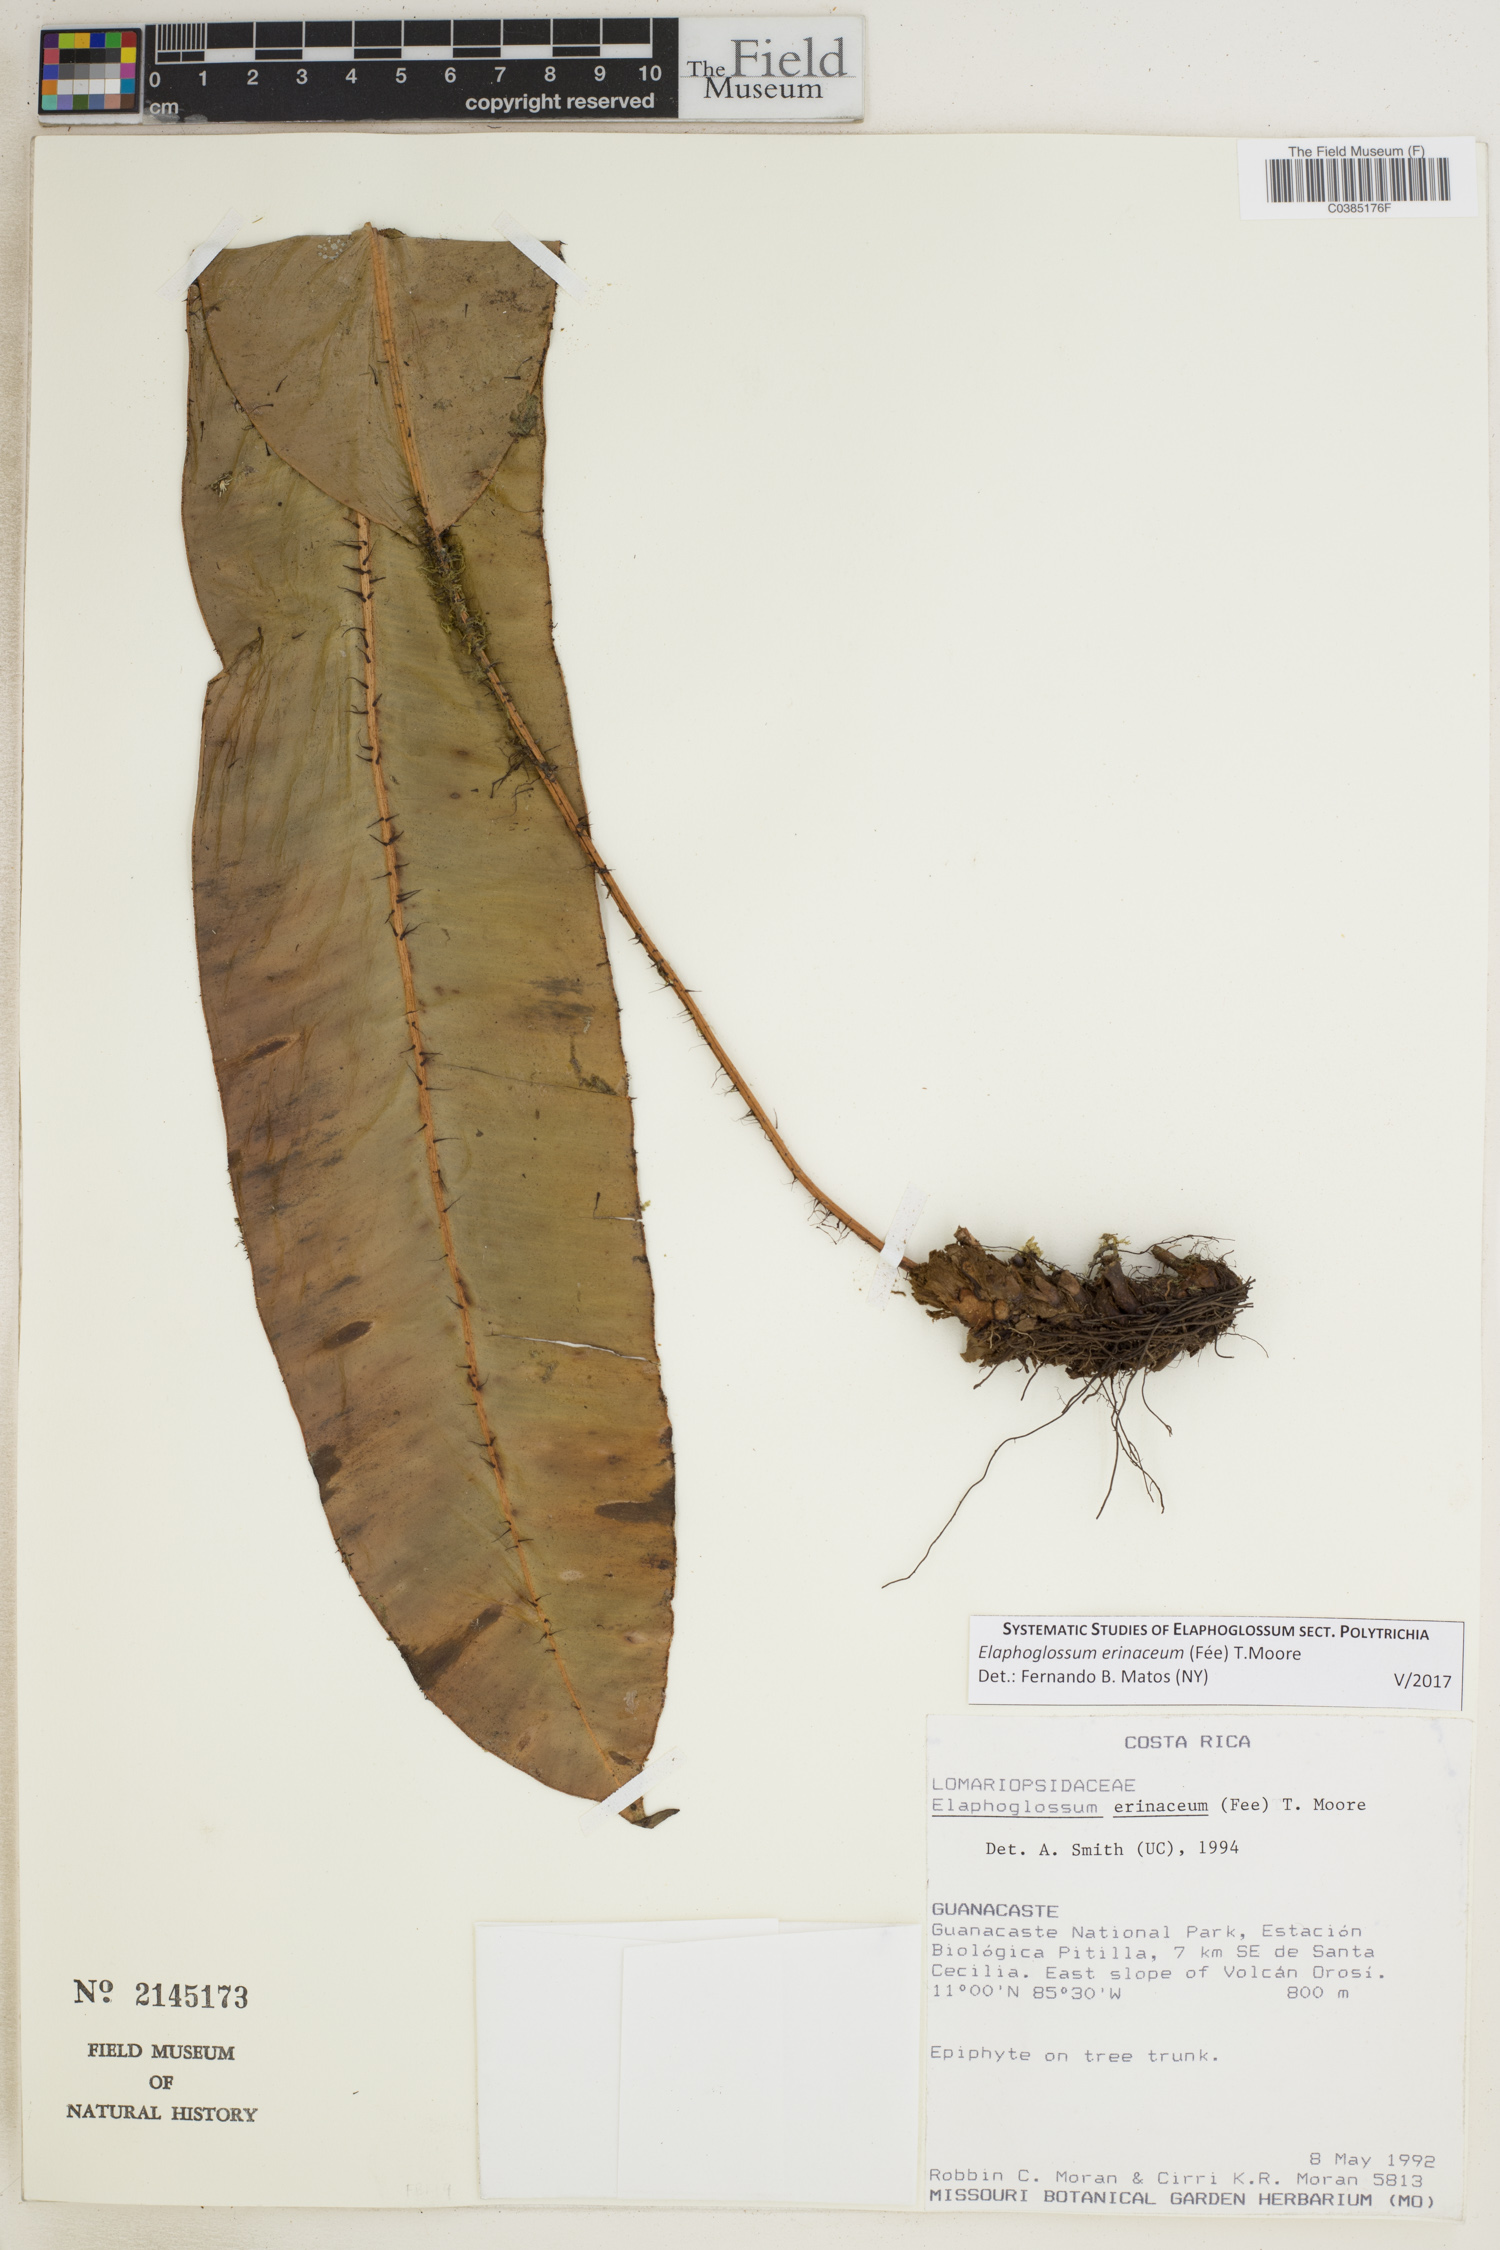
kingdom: Plantae
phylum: Tracheophyta
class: Polypodiopsida
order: Polypodiales
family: Dryopteridaceae
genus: Elaphoglossum
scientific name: Elaphoglossum erinaceum
